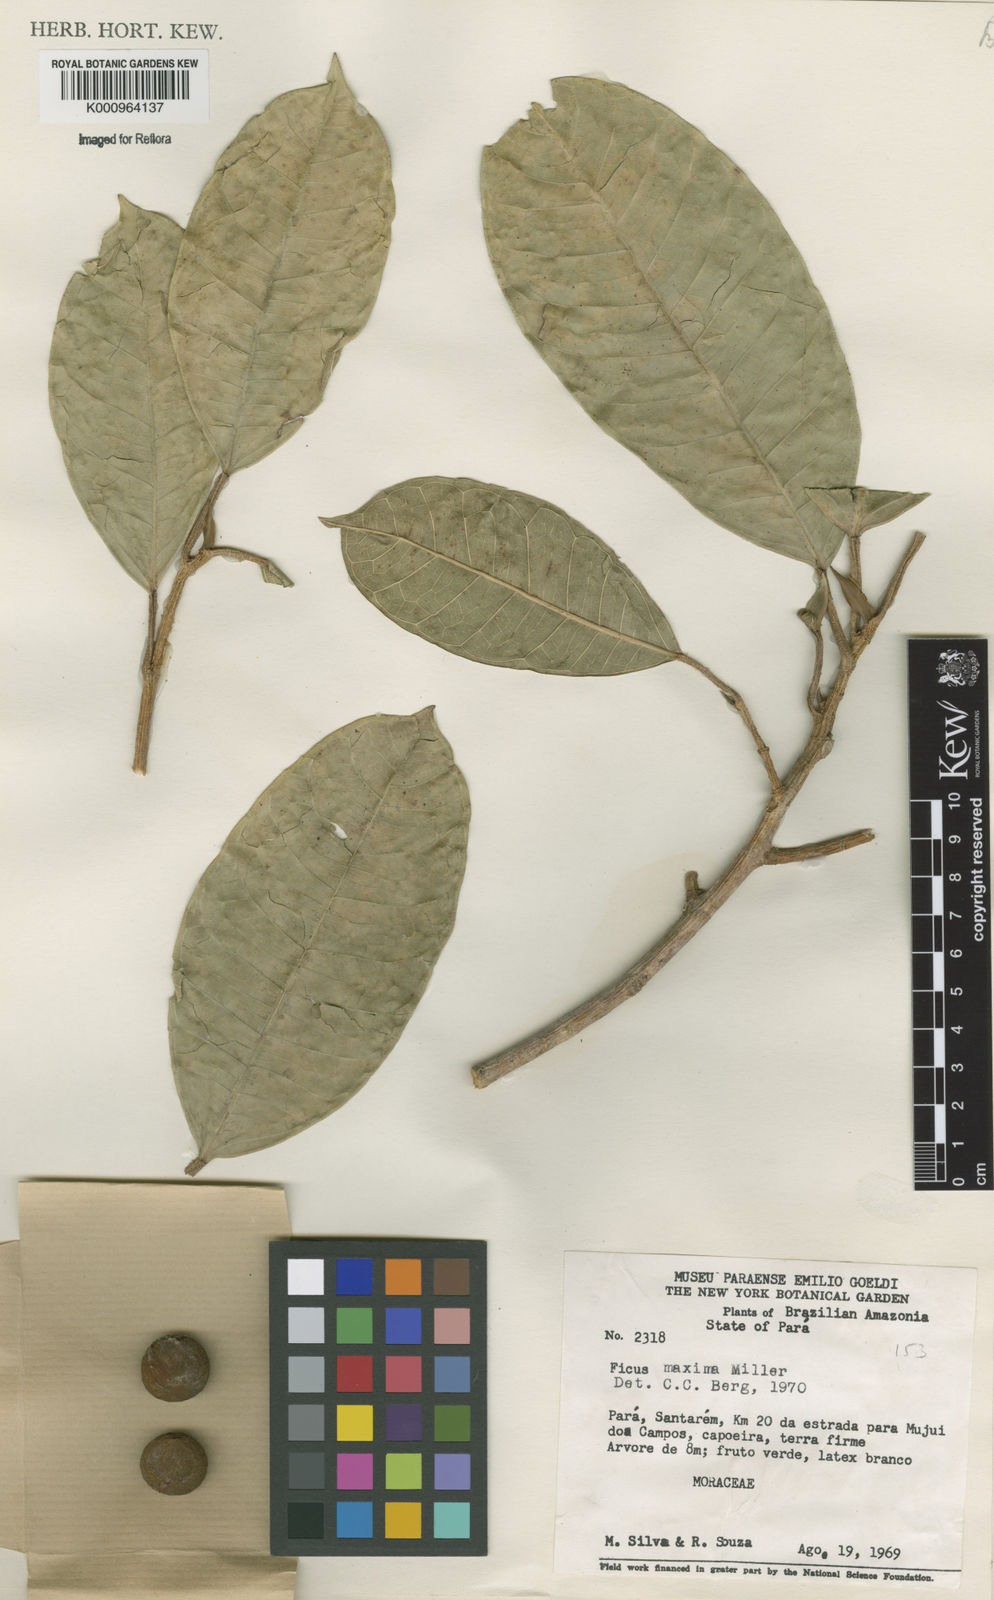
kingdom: Plantae
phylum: Tracheophyta
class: Magnoliopsida
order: Rosales
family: Moraceae
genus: Ficus
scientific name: Ficus maxima
